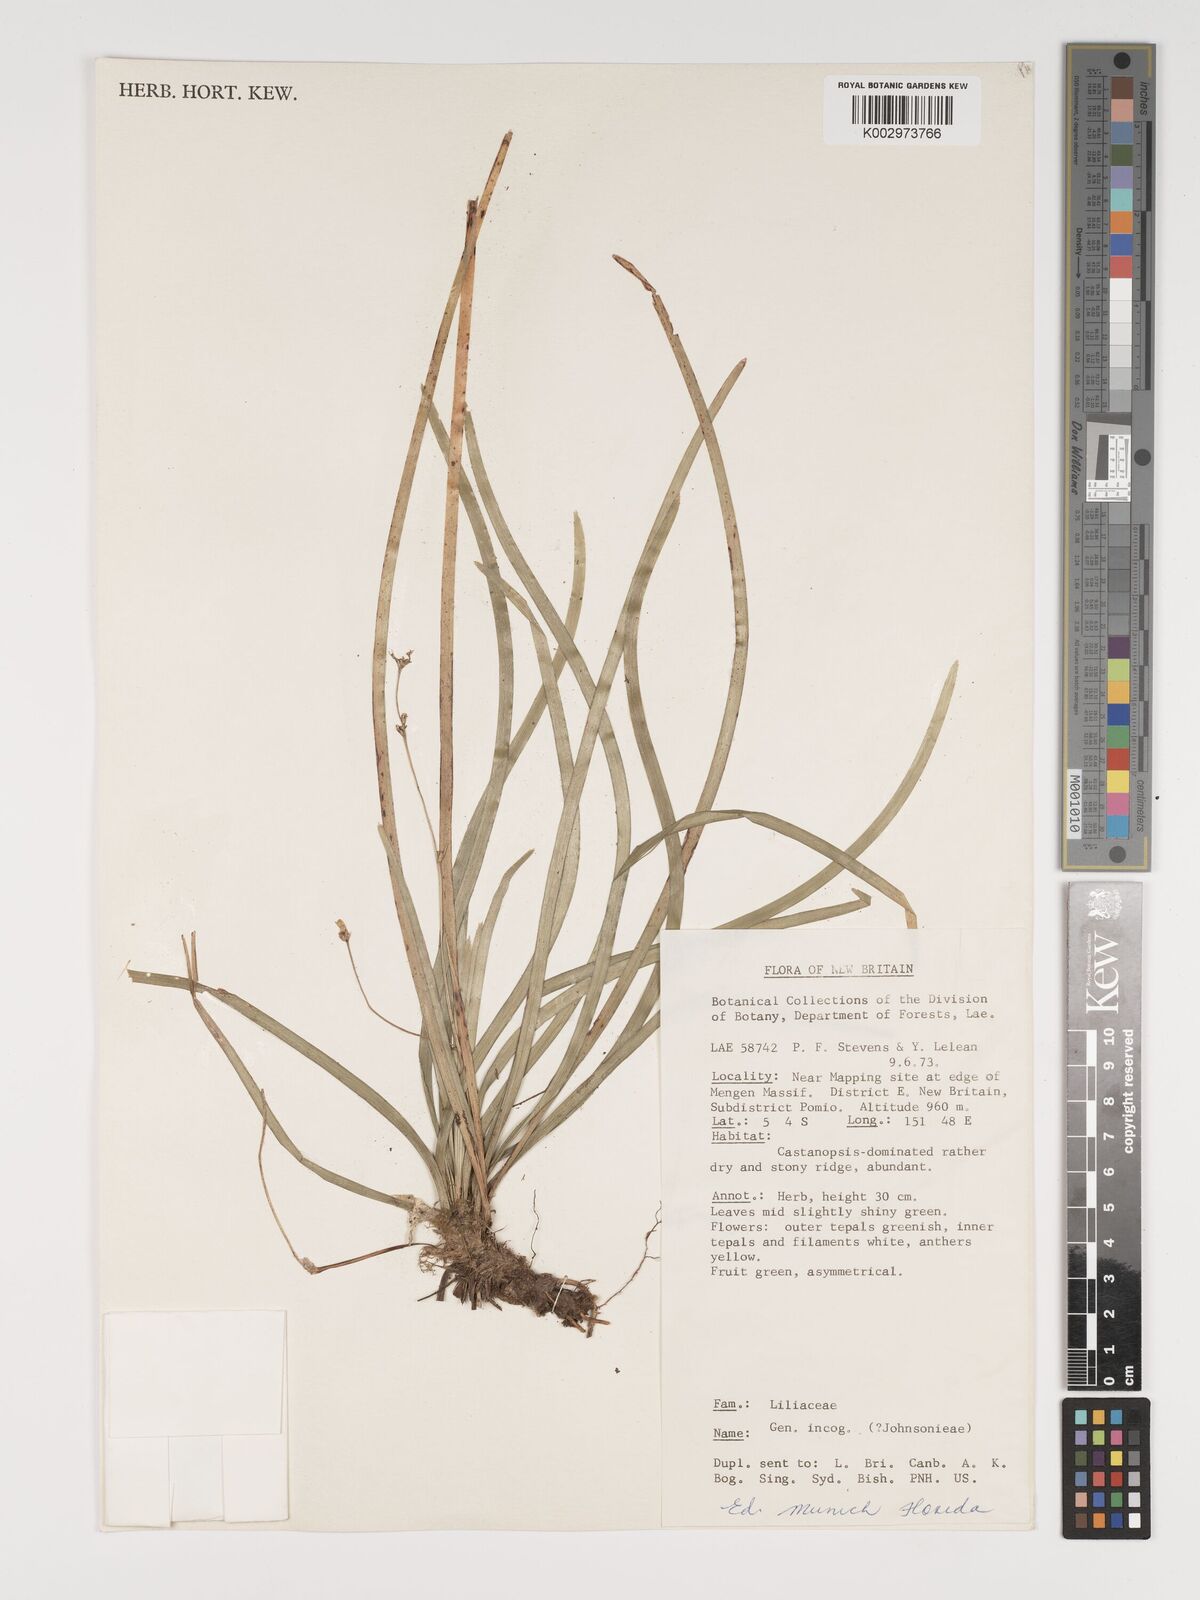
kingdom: Plantae
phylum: Tracheophyta
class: Liliopsida
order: Asparagales
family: Asphodelaceae
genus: Thelionema
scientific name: Thelionema caespitosum
